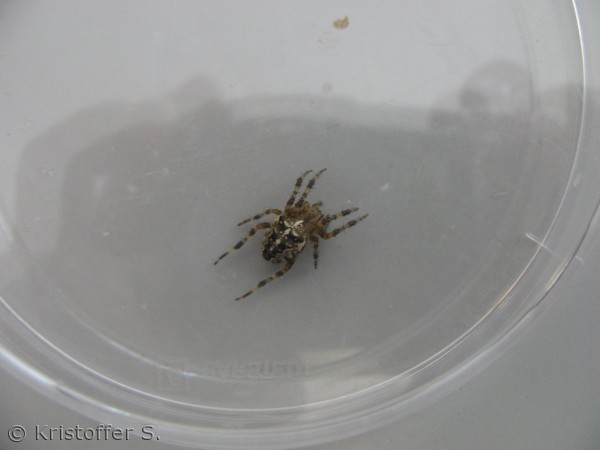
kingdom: Animalia
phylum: Arthropoda
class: Arachnida
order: Araneae
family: Araneidae
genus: Araneus
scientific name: Araneus diadematus
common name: Korsedderkop
